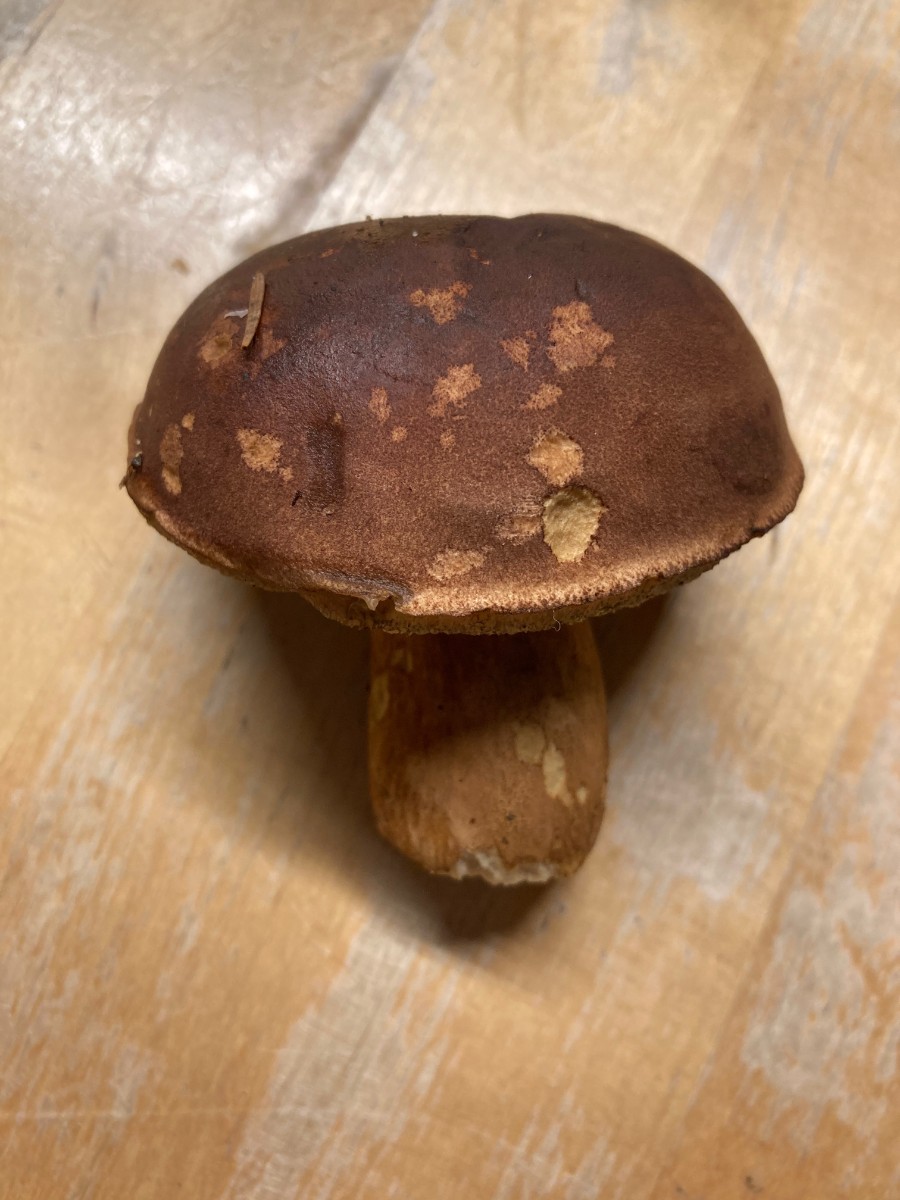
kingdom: Fungi
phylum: Basidiomycota
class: Agaricomycetes
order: Boletales
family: Boletaceae
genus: Imleria
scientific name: Imleria badia
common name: brunstokket rørhat
